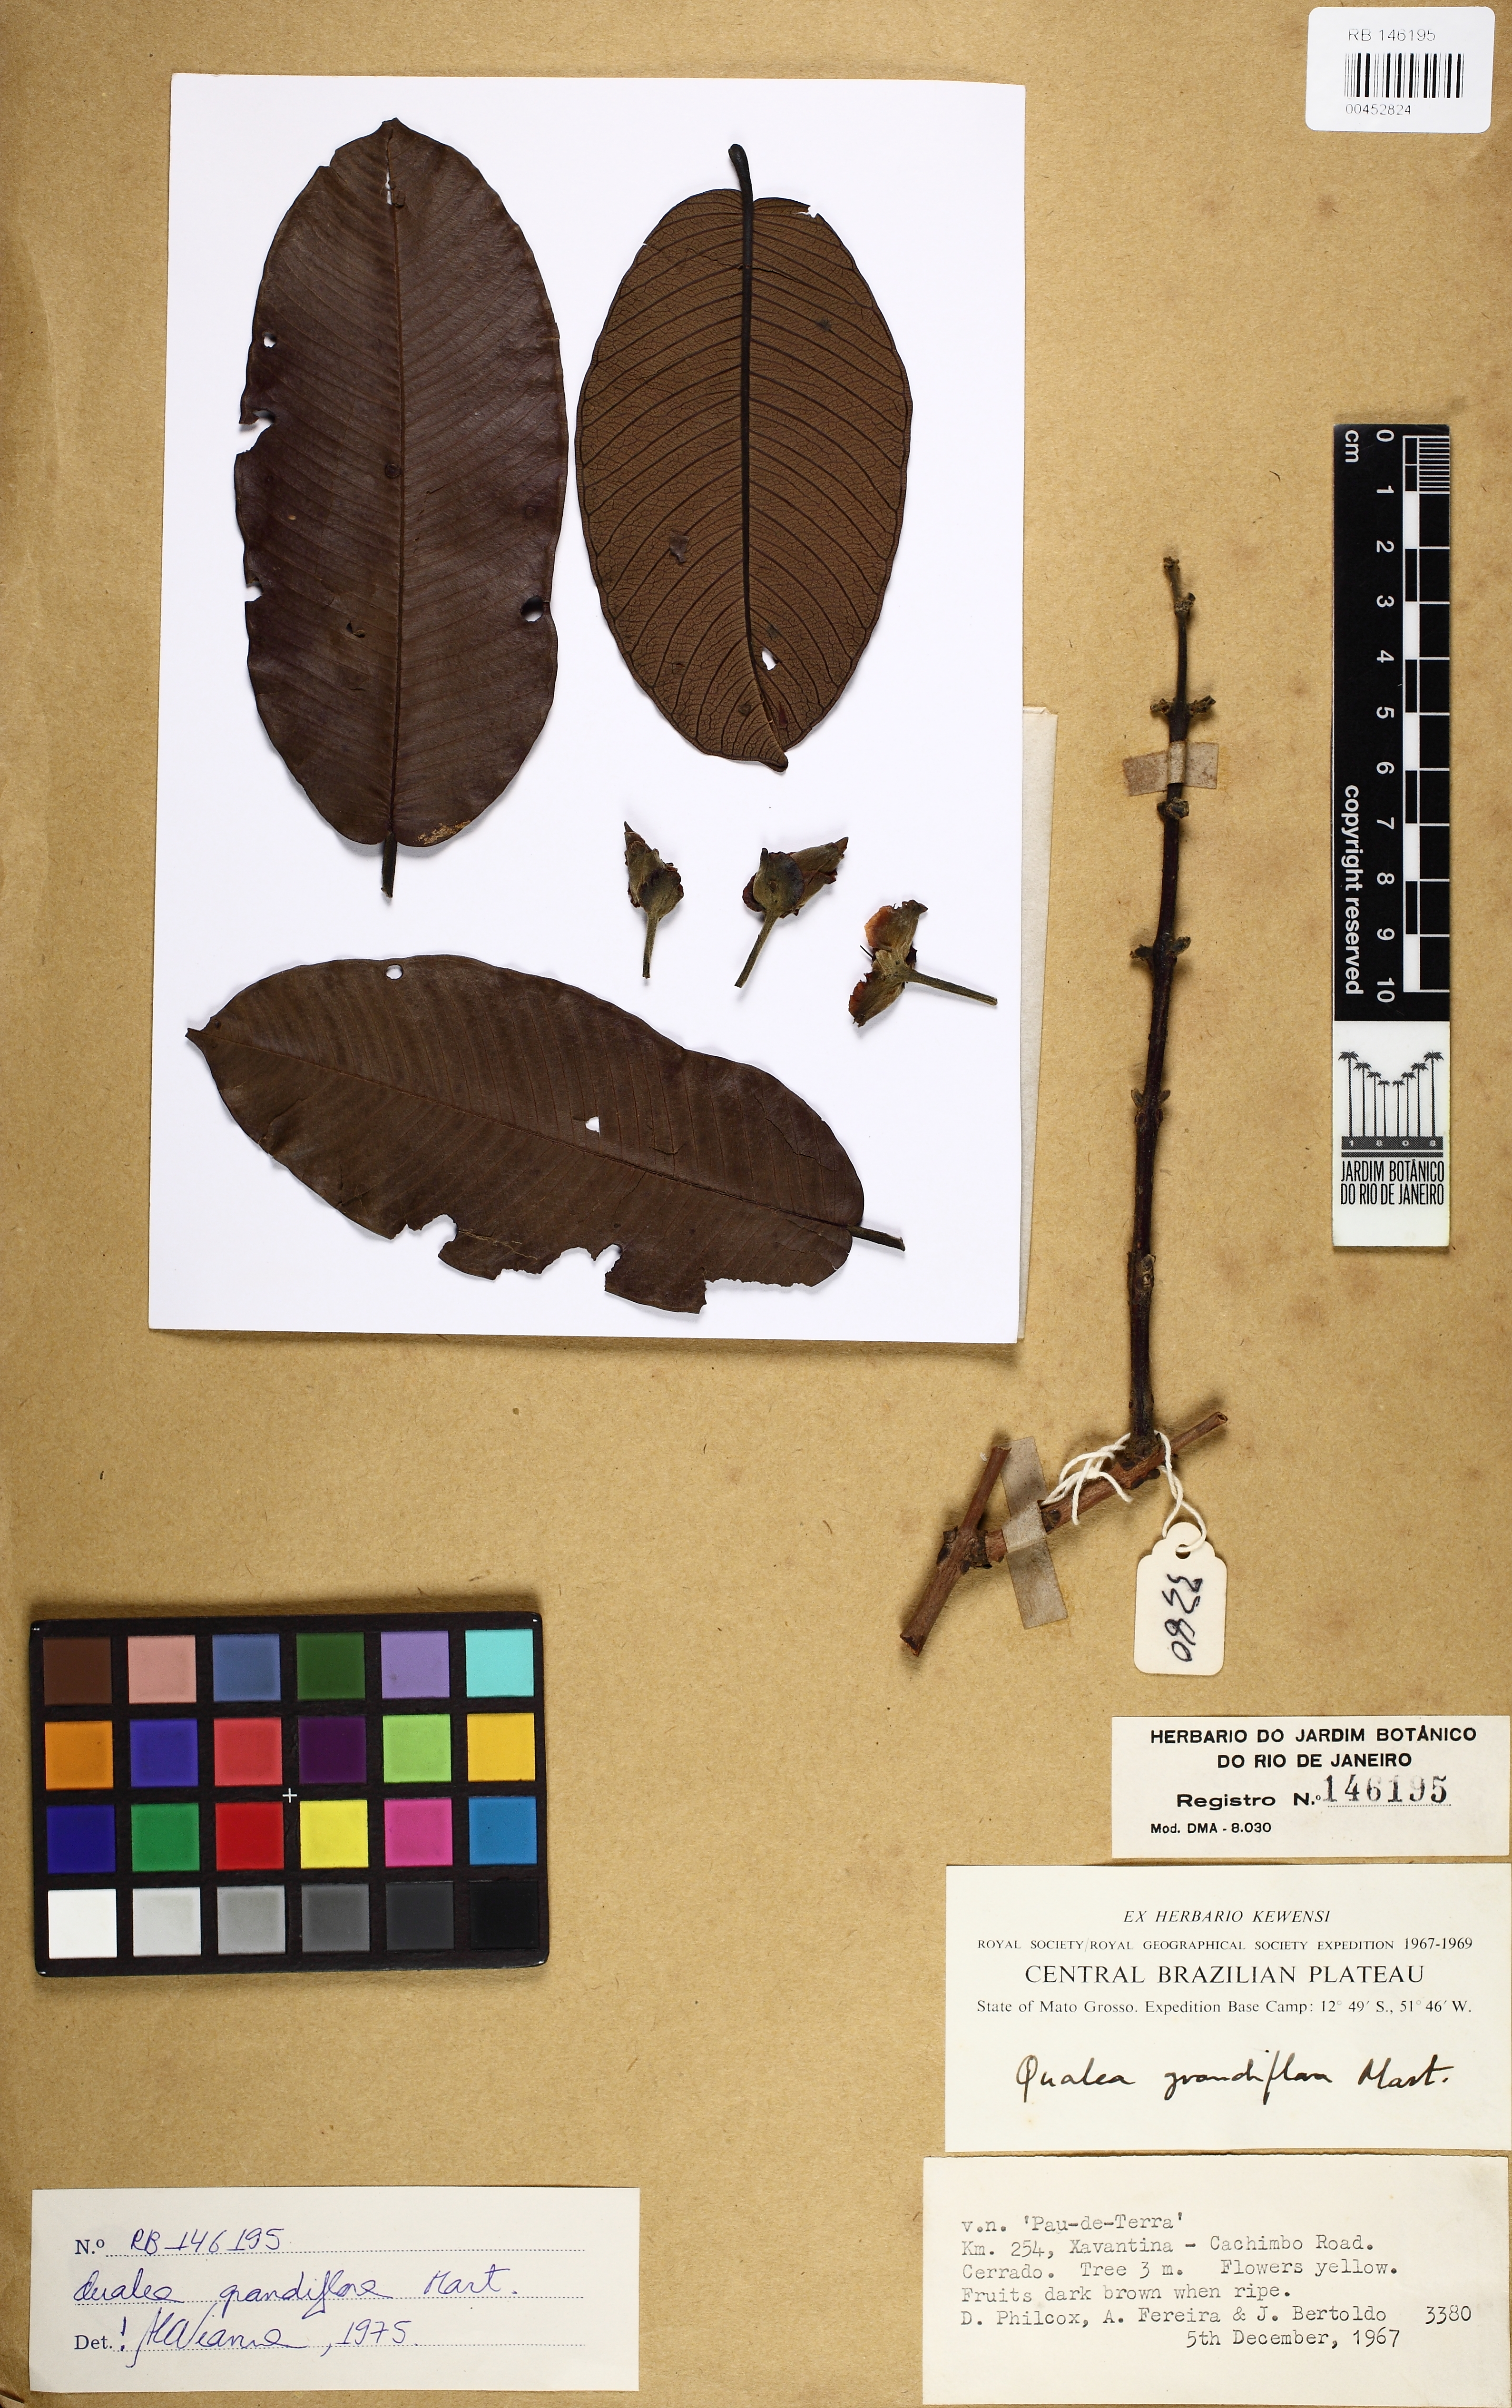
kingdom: Plantae
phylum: Tracheophyta
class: Magnoliopsida
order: Myrtales
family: Vochysiaceae
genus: Qualea
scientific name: Qualea grandiflora
